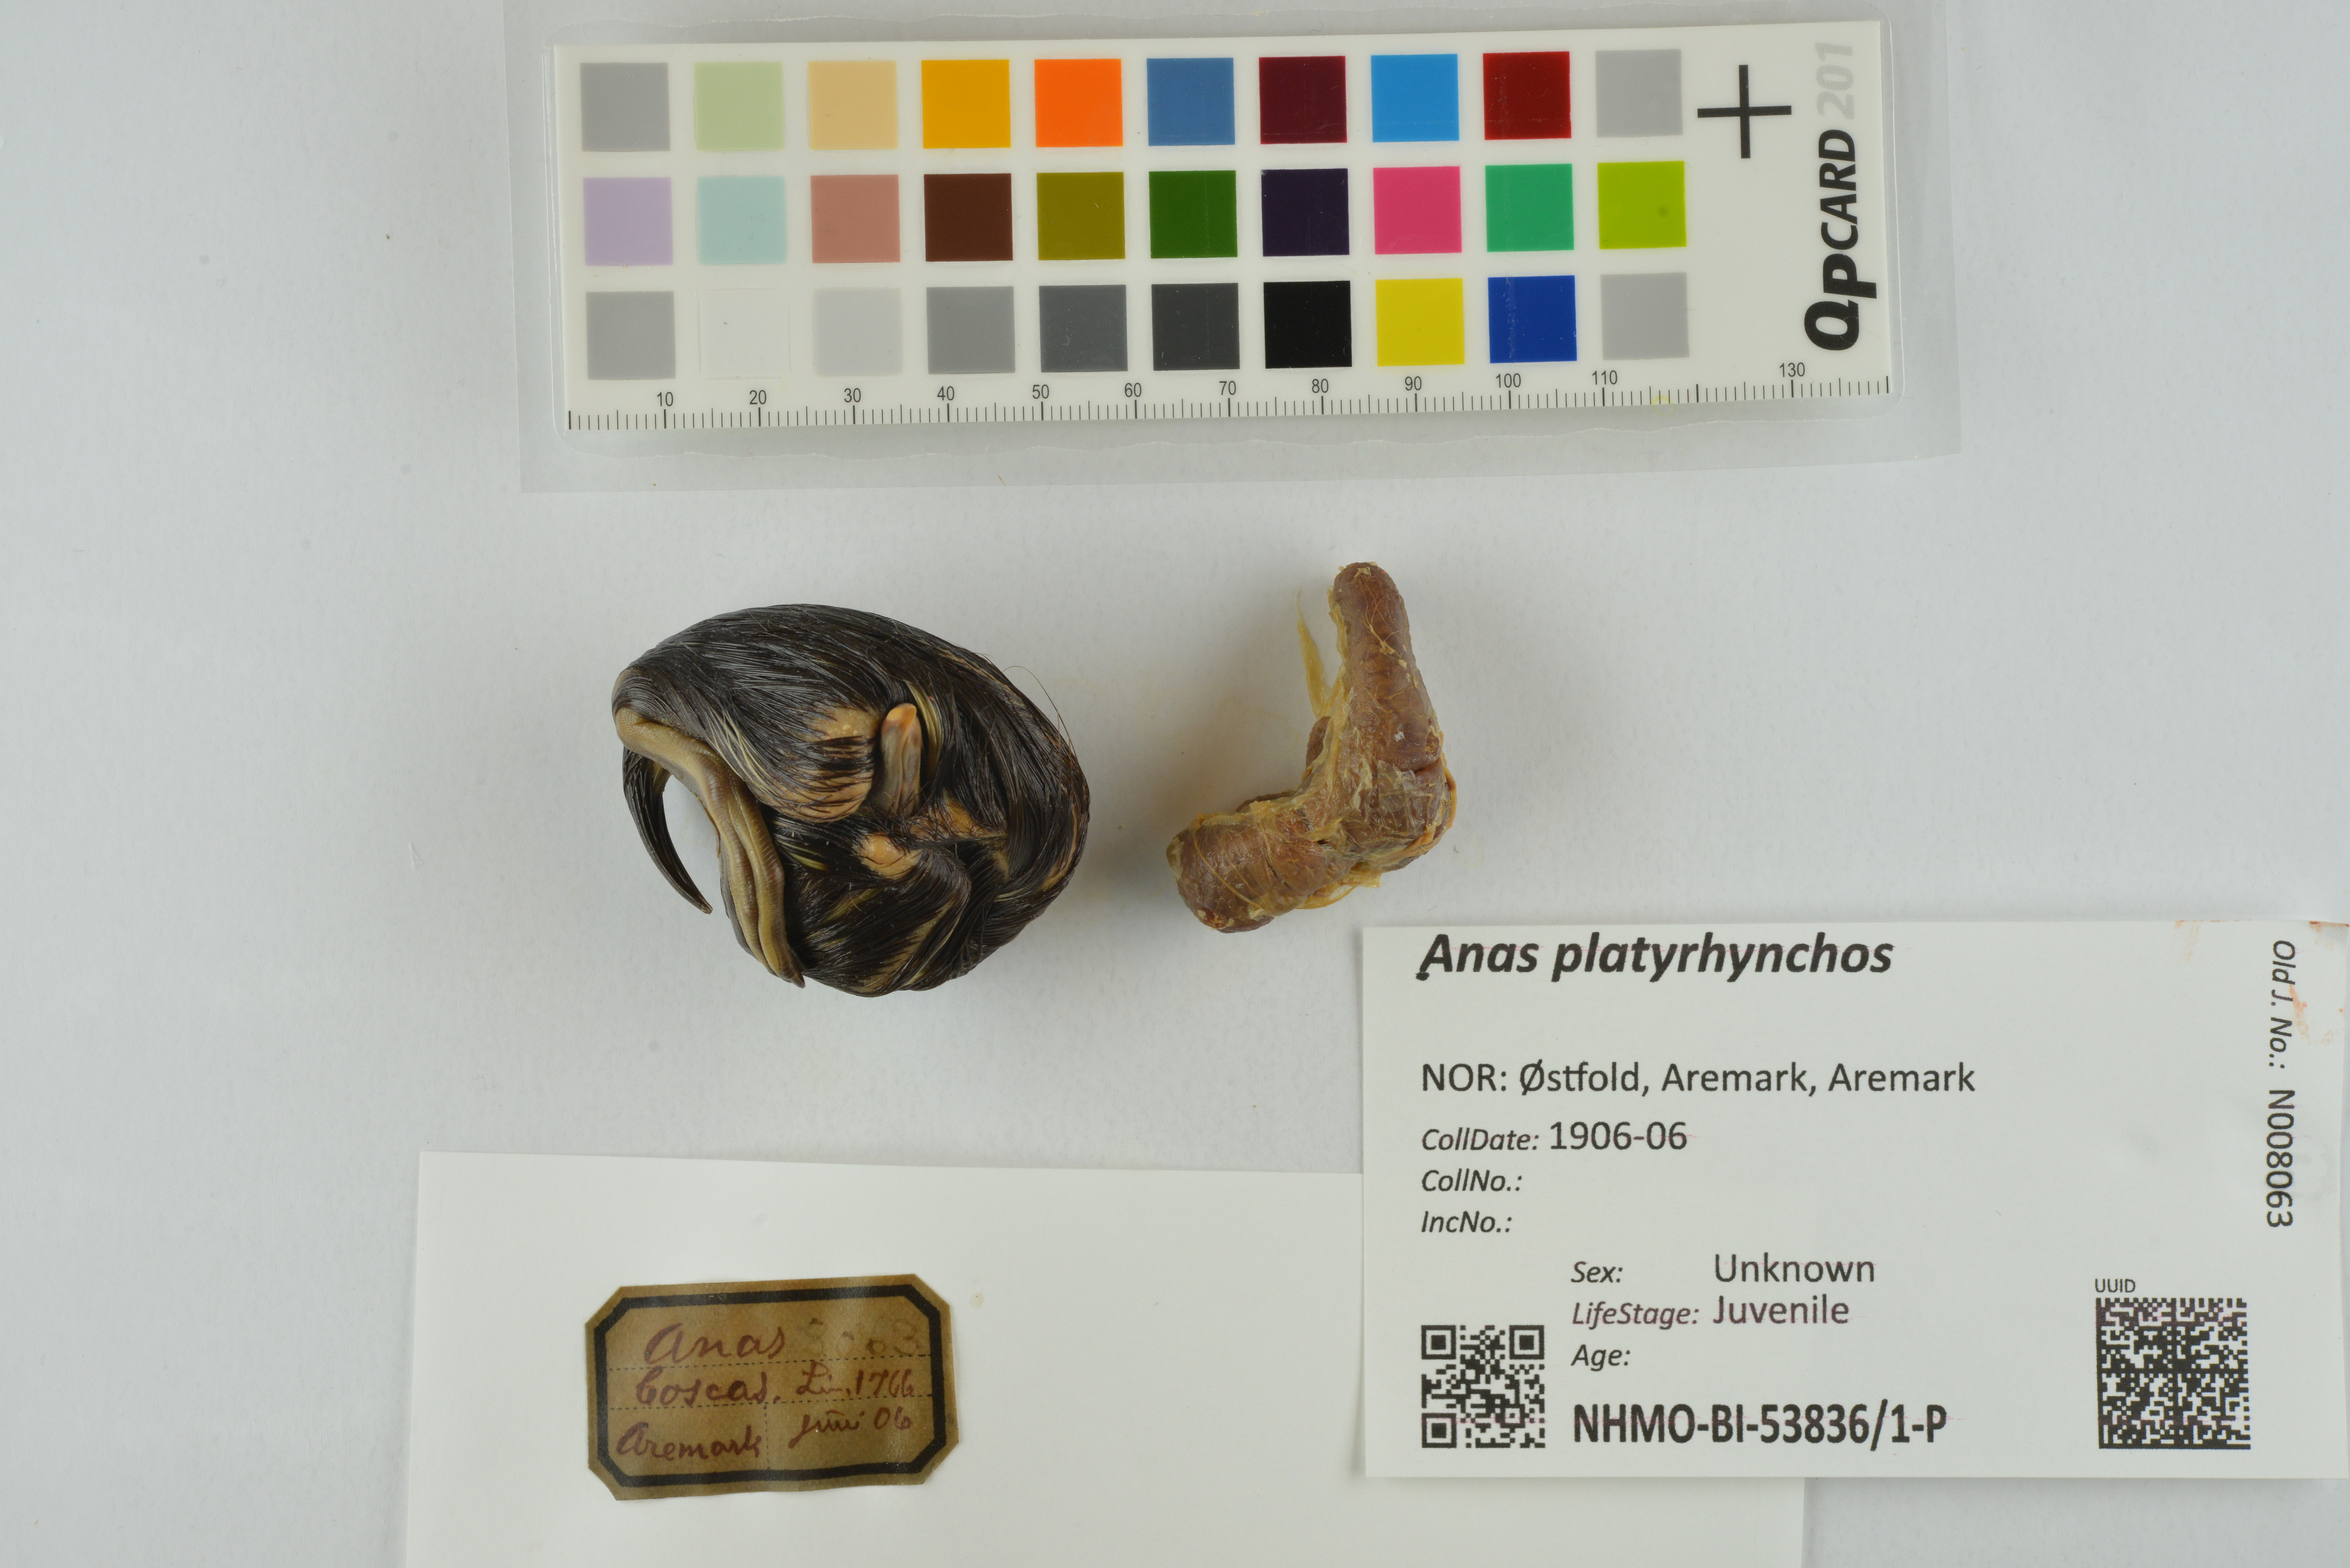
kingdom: Animalia
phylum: Chordata
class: Aves
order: Anseriformes
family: Anatidae
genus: Anas
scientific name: Anas platyrhynchos
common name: Mallard
